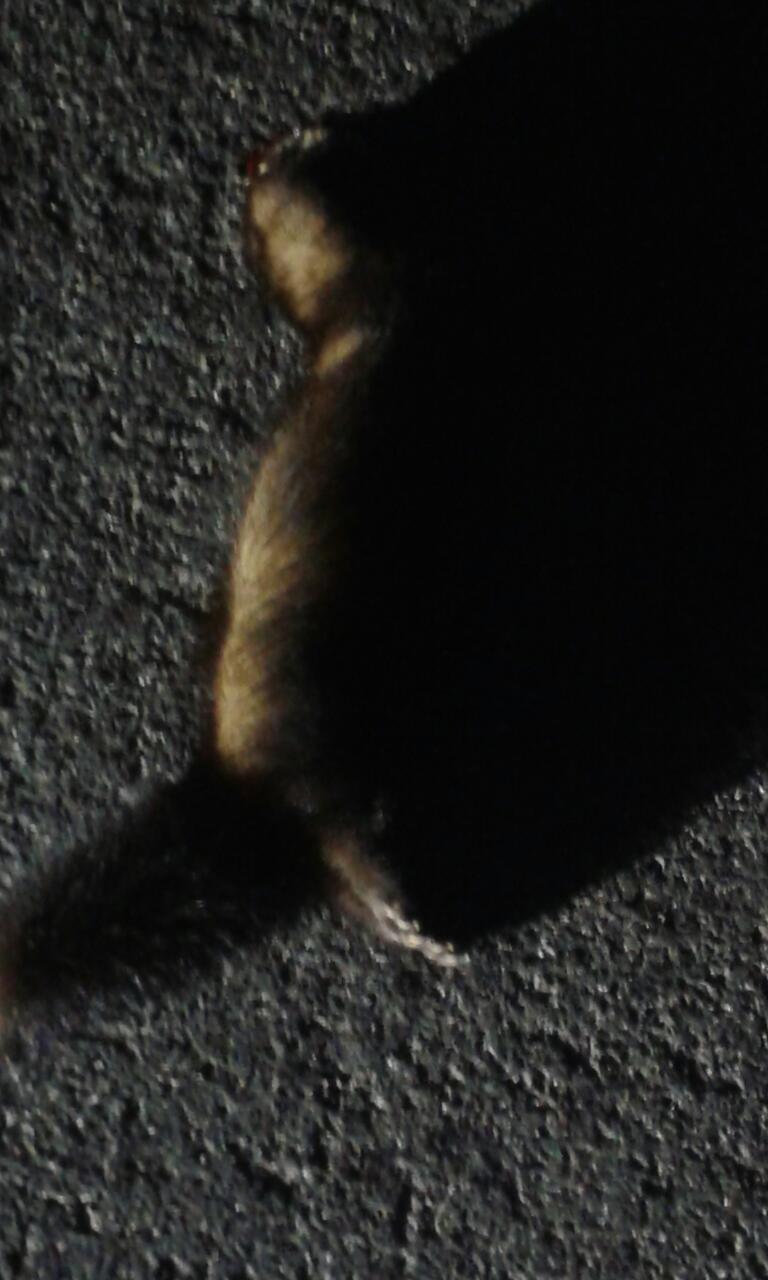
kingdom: Animalia
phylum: Chordata
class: Mammalia
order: Carnivora
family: Mustelidae
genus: Mustela
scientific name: Mustela putorius
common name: European polecat
